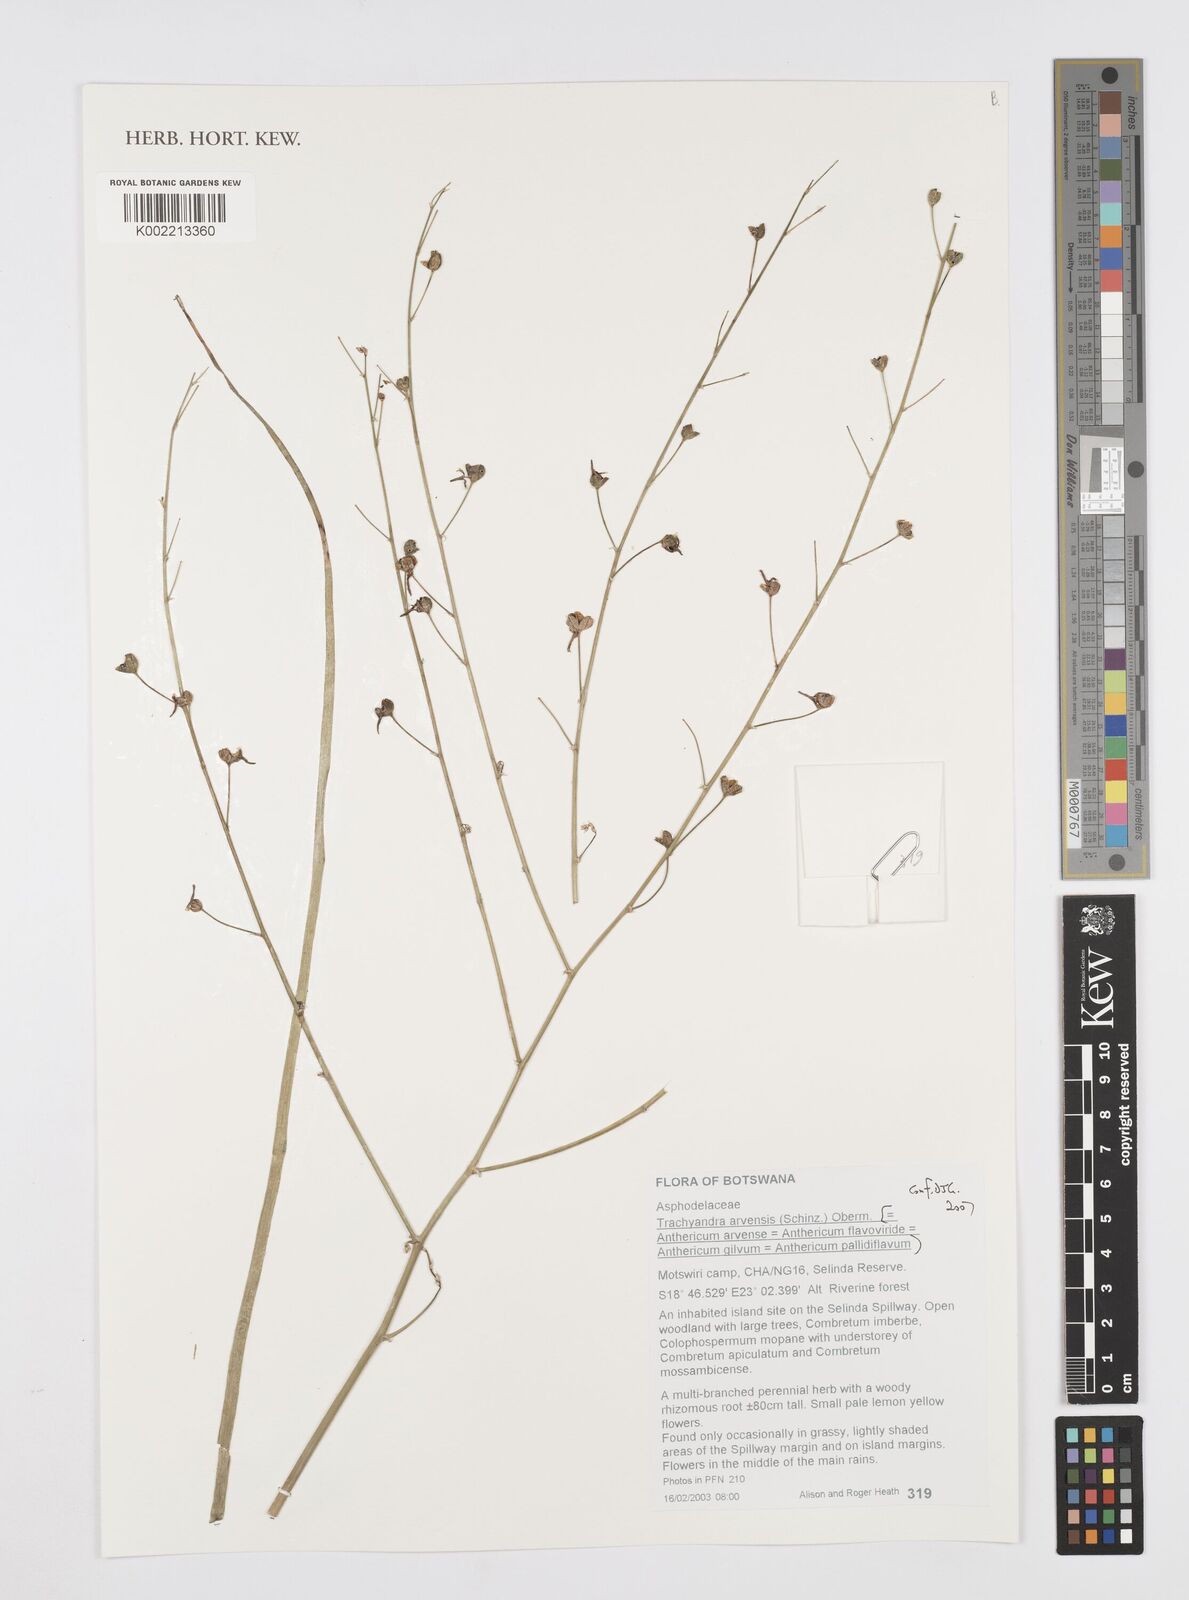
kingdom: Plantae
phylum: Tracheophyta
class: Liliopsida
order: Asparagales
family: Asphodelaceae
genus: Trachyandra
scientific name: Trachyandra arvensis
